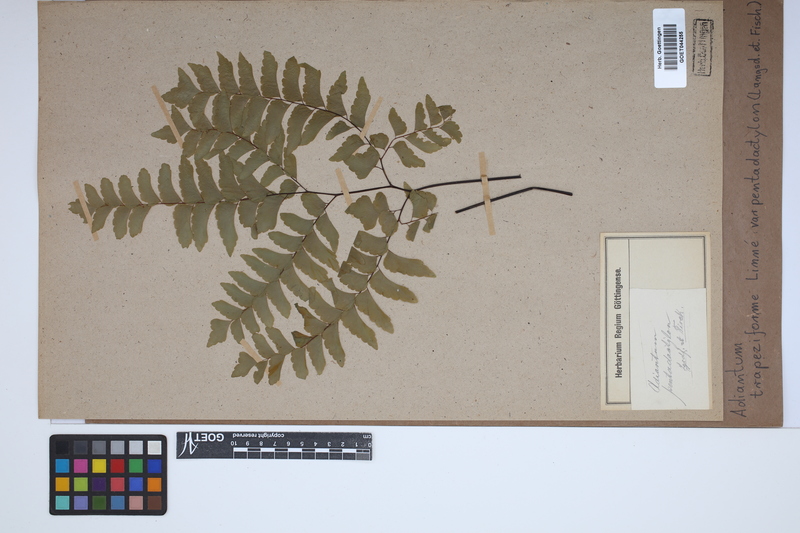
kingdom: Plantae
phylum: Tracheophyta
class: Polypodiopsida
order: Polypodiales
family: Pteridaceae
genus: Adiantum
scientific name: Adiantum pentadactylon
